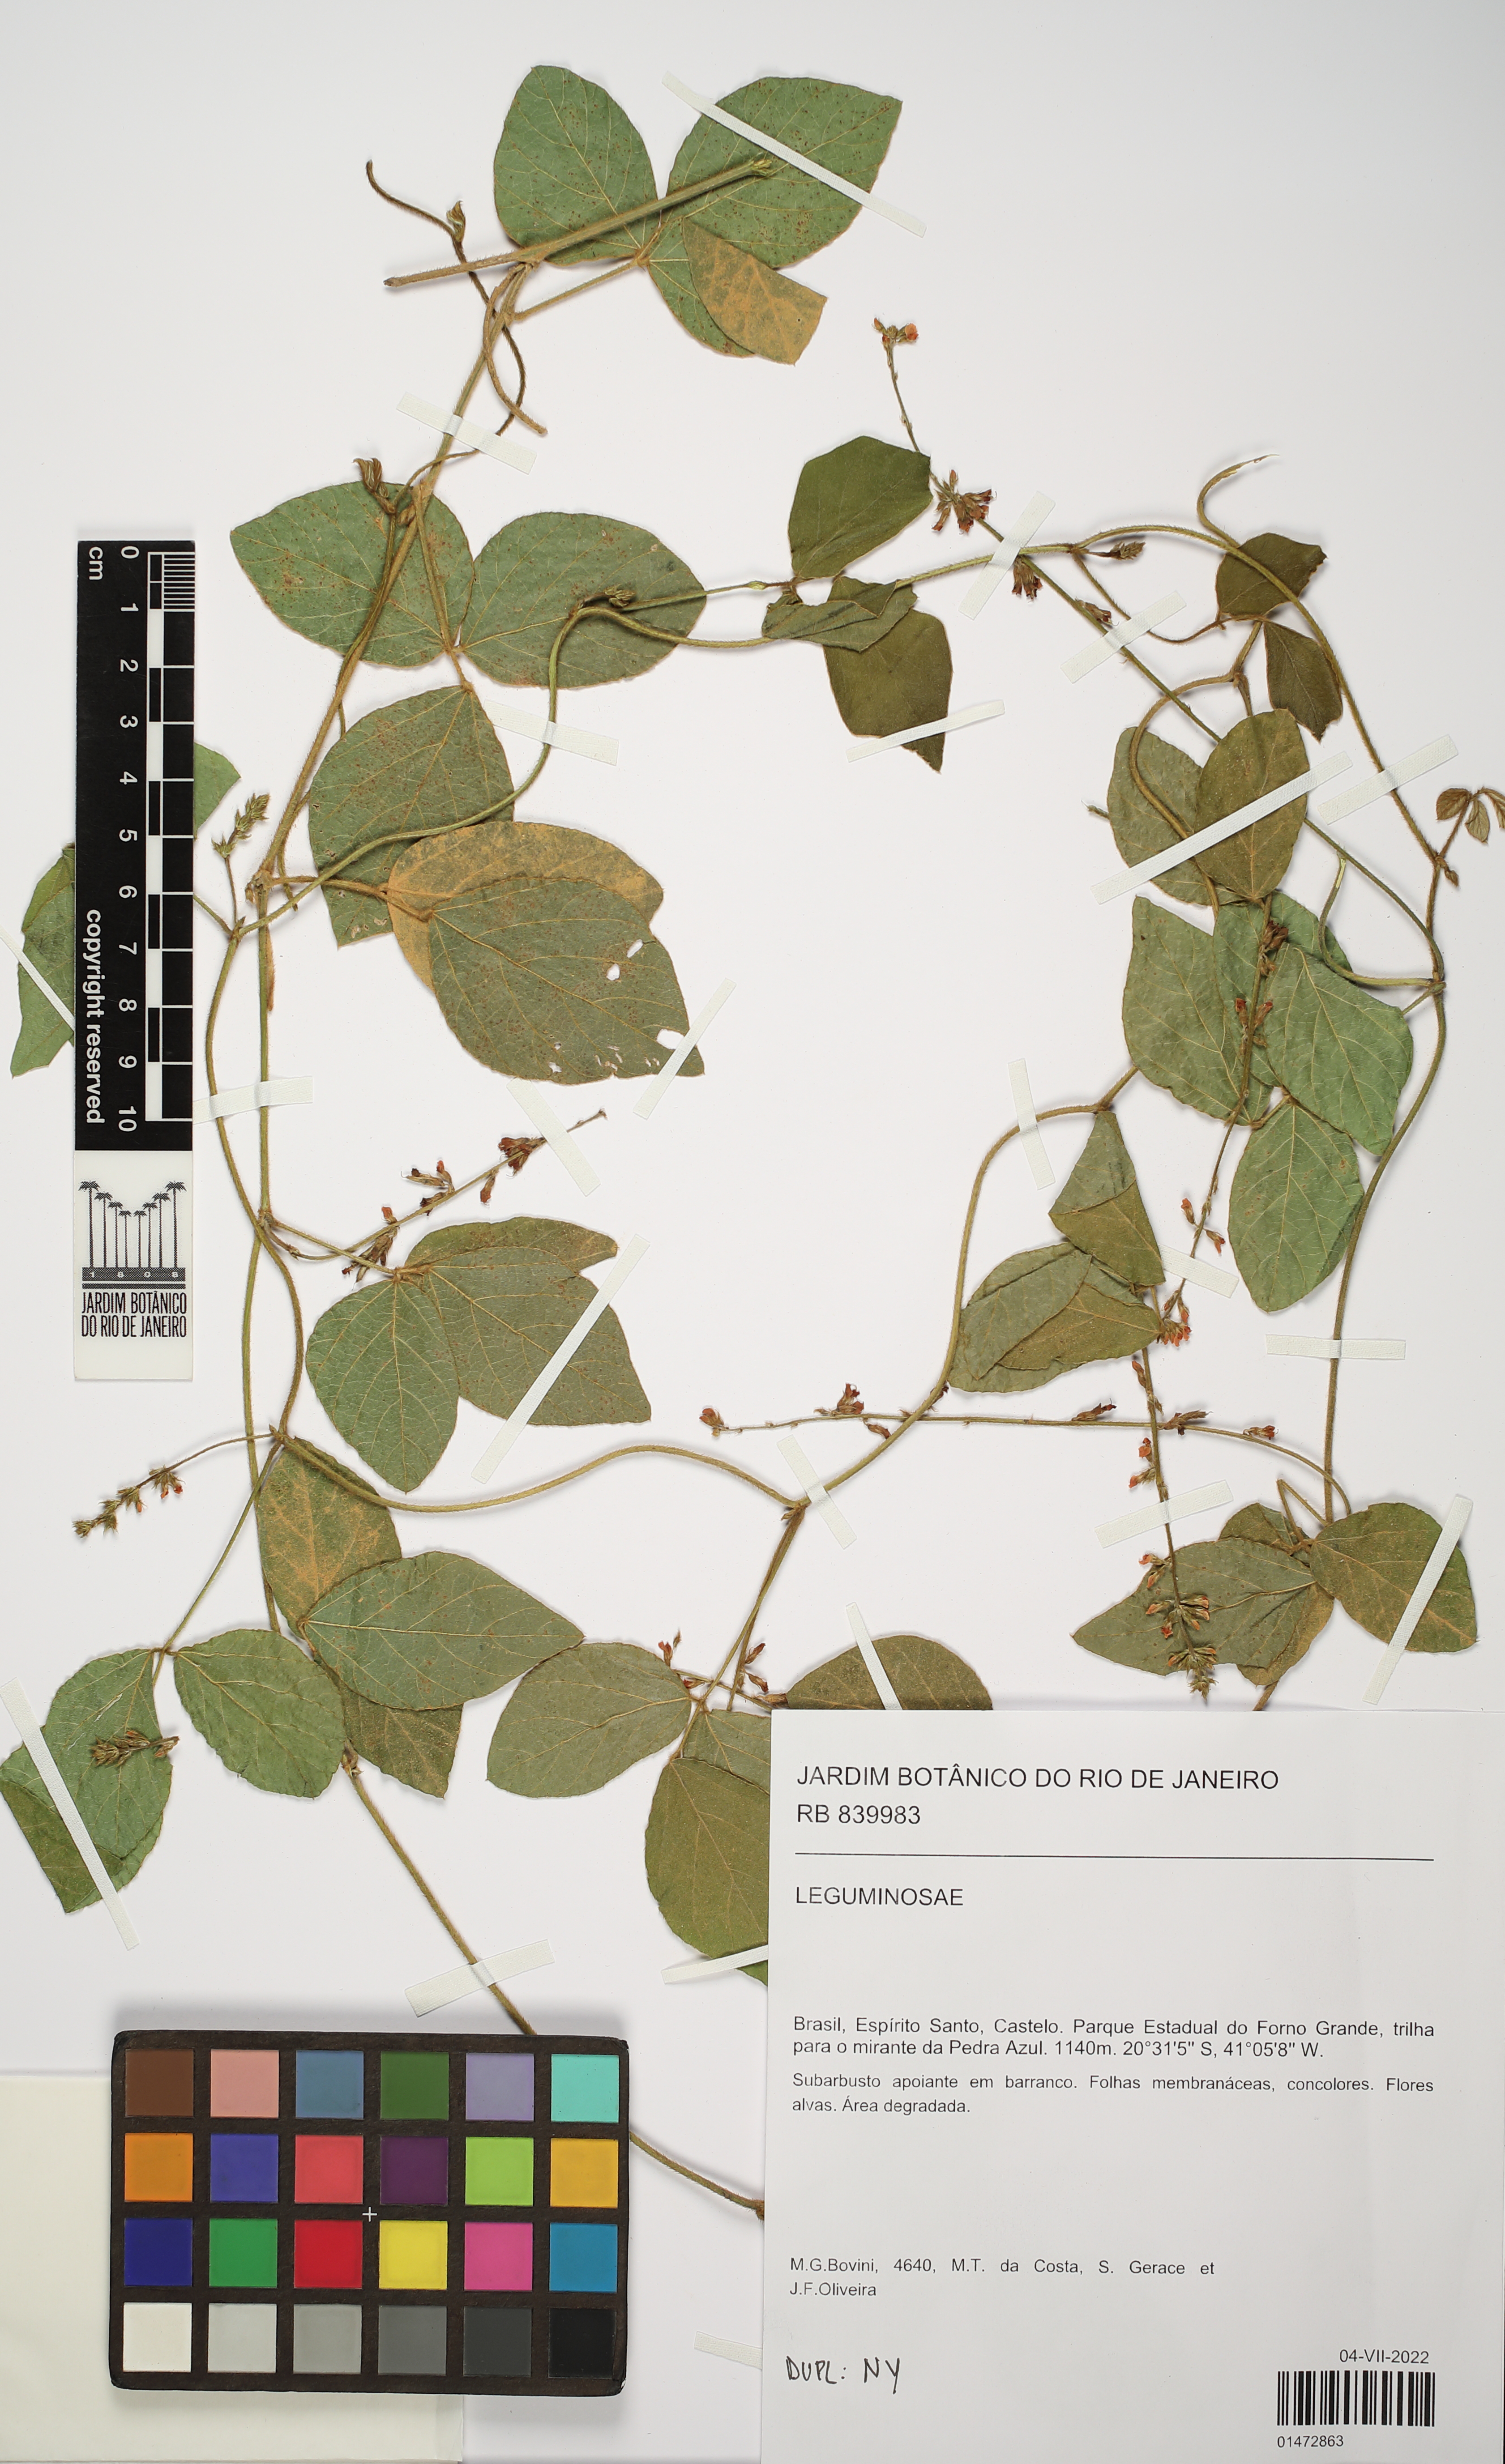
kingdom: Plantae
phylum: Tracheophyta
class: Magnoliopsida
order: Fabales
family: Fabaceae
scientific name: Fabaceae
